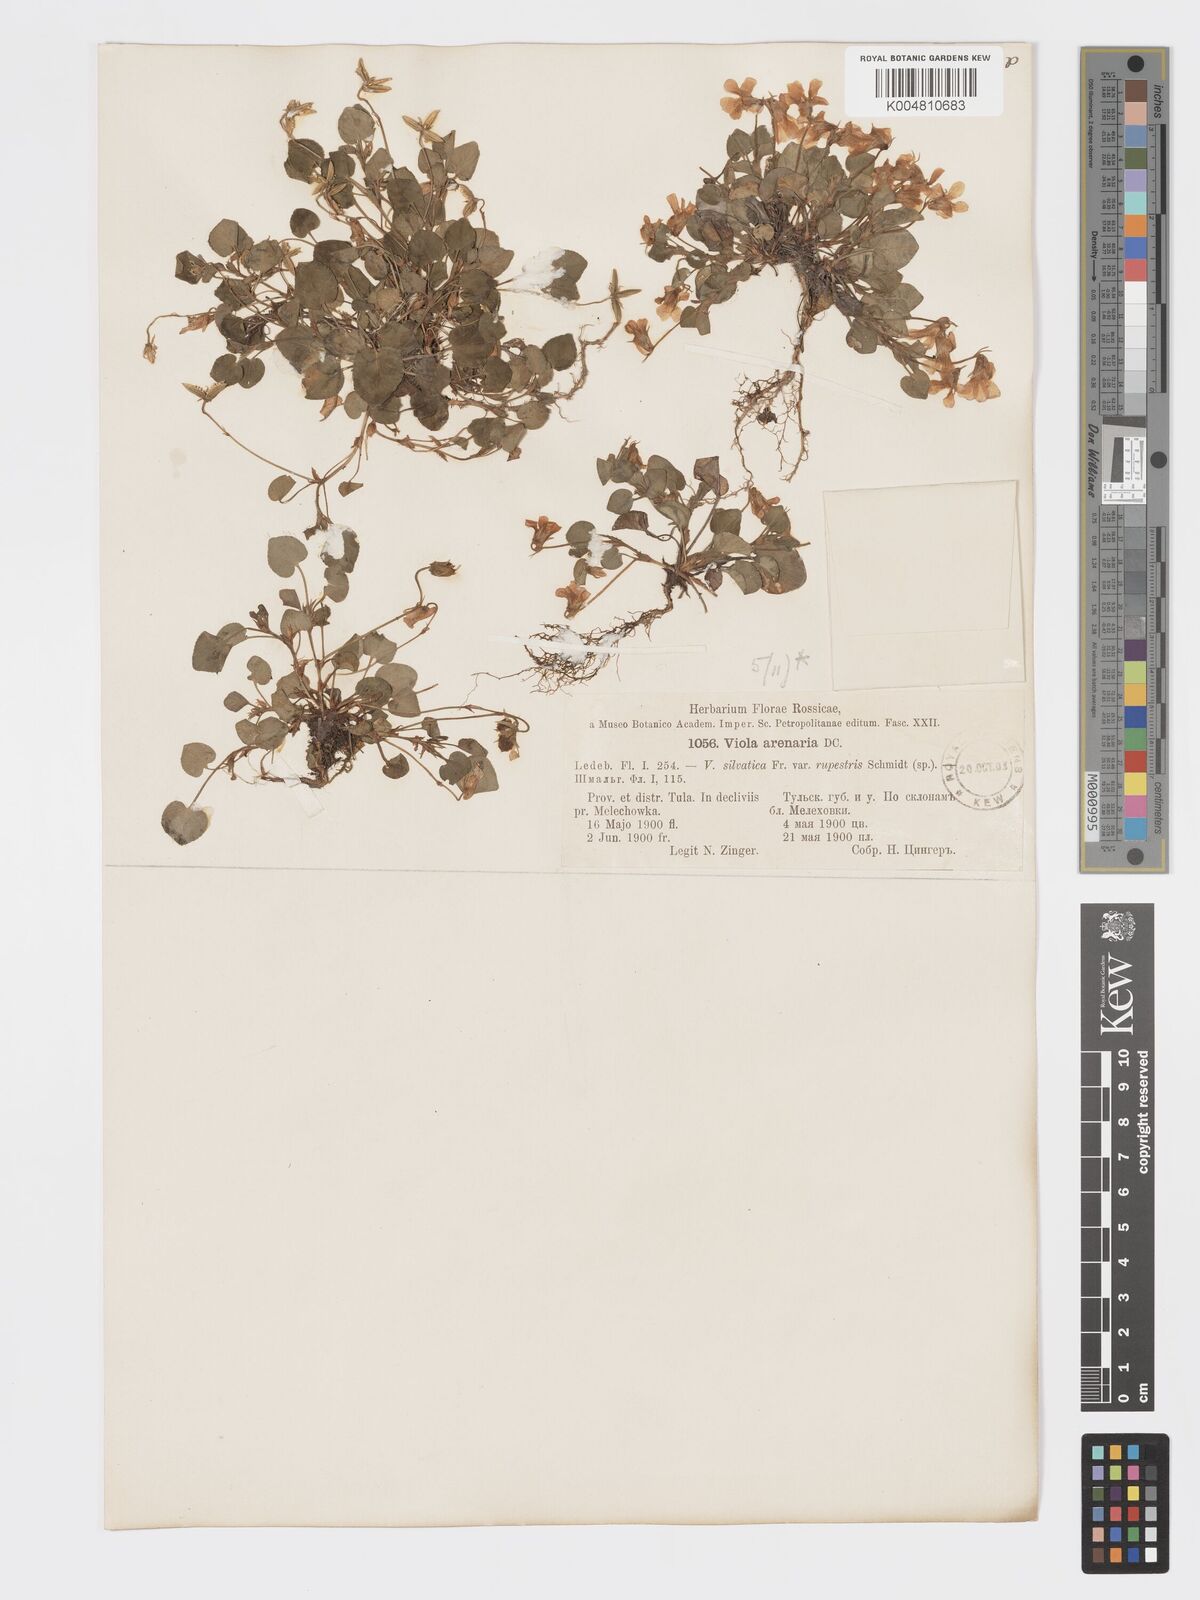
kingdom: Plantae
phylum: Tracheophyta
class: Magnoliopsida
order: Malpighiales
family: Violaceae
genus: Viola
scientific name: Viola rupestris
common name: Teesdale violet
